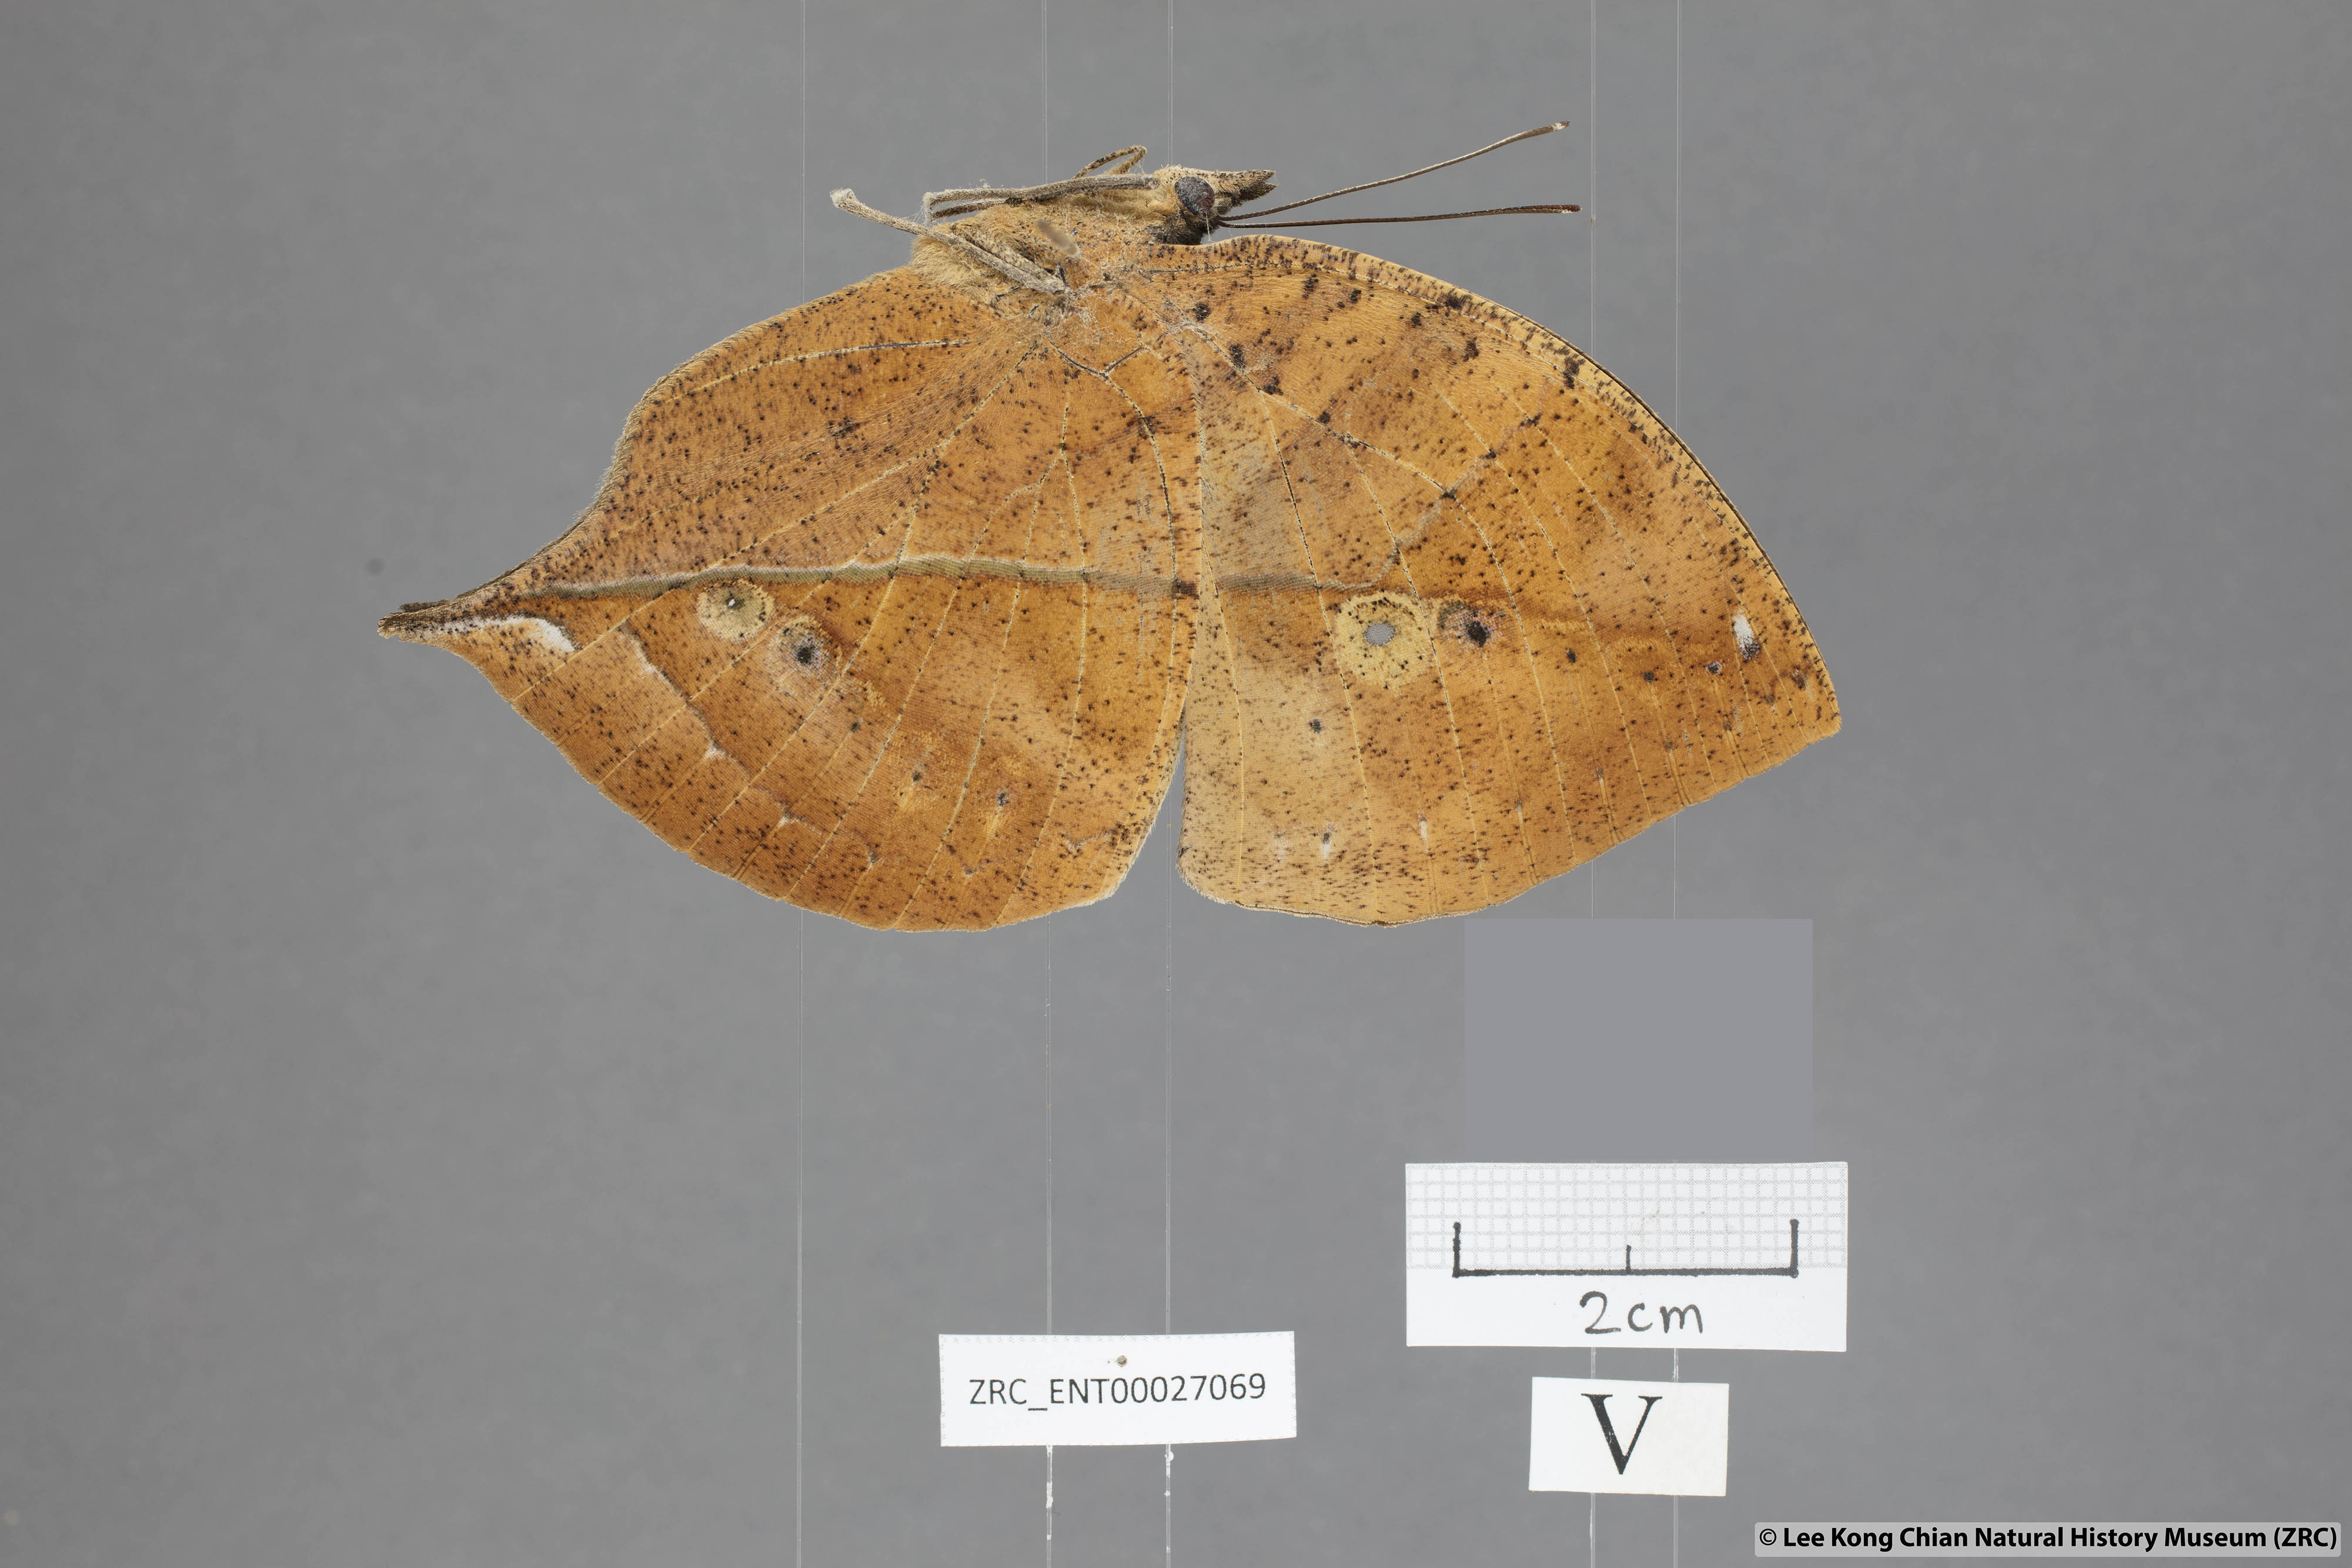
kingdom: Animalia
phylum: Arthropoda
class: Insecta
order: Lepidoptera
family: Nymphalidae
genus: Kallima
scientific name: Kallima paralekta
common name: Indian leafwing
